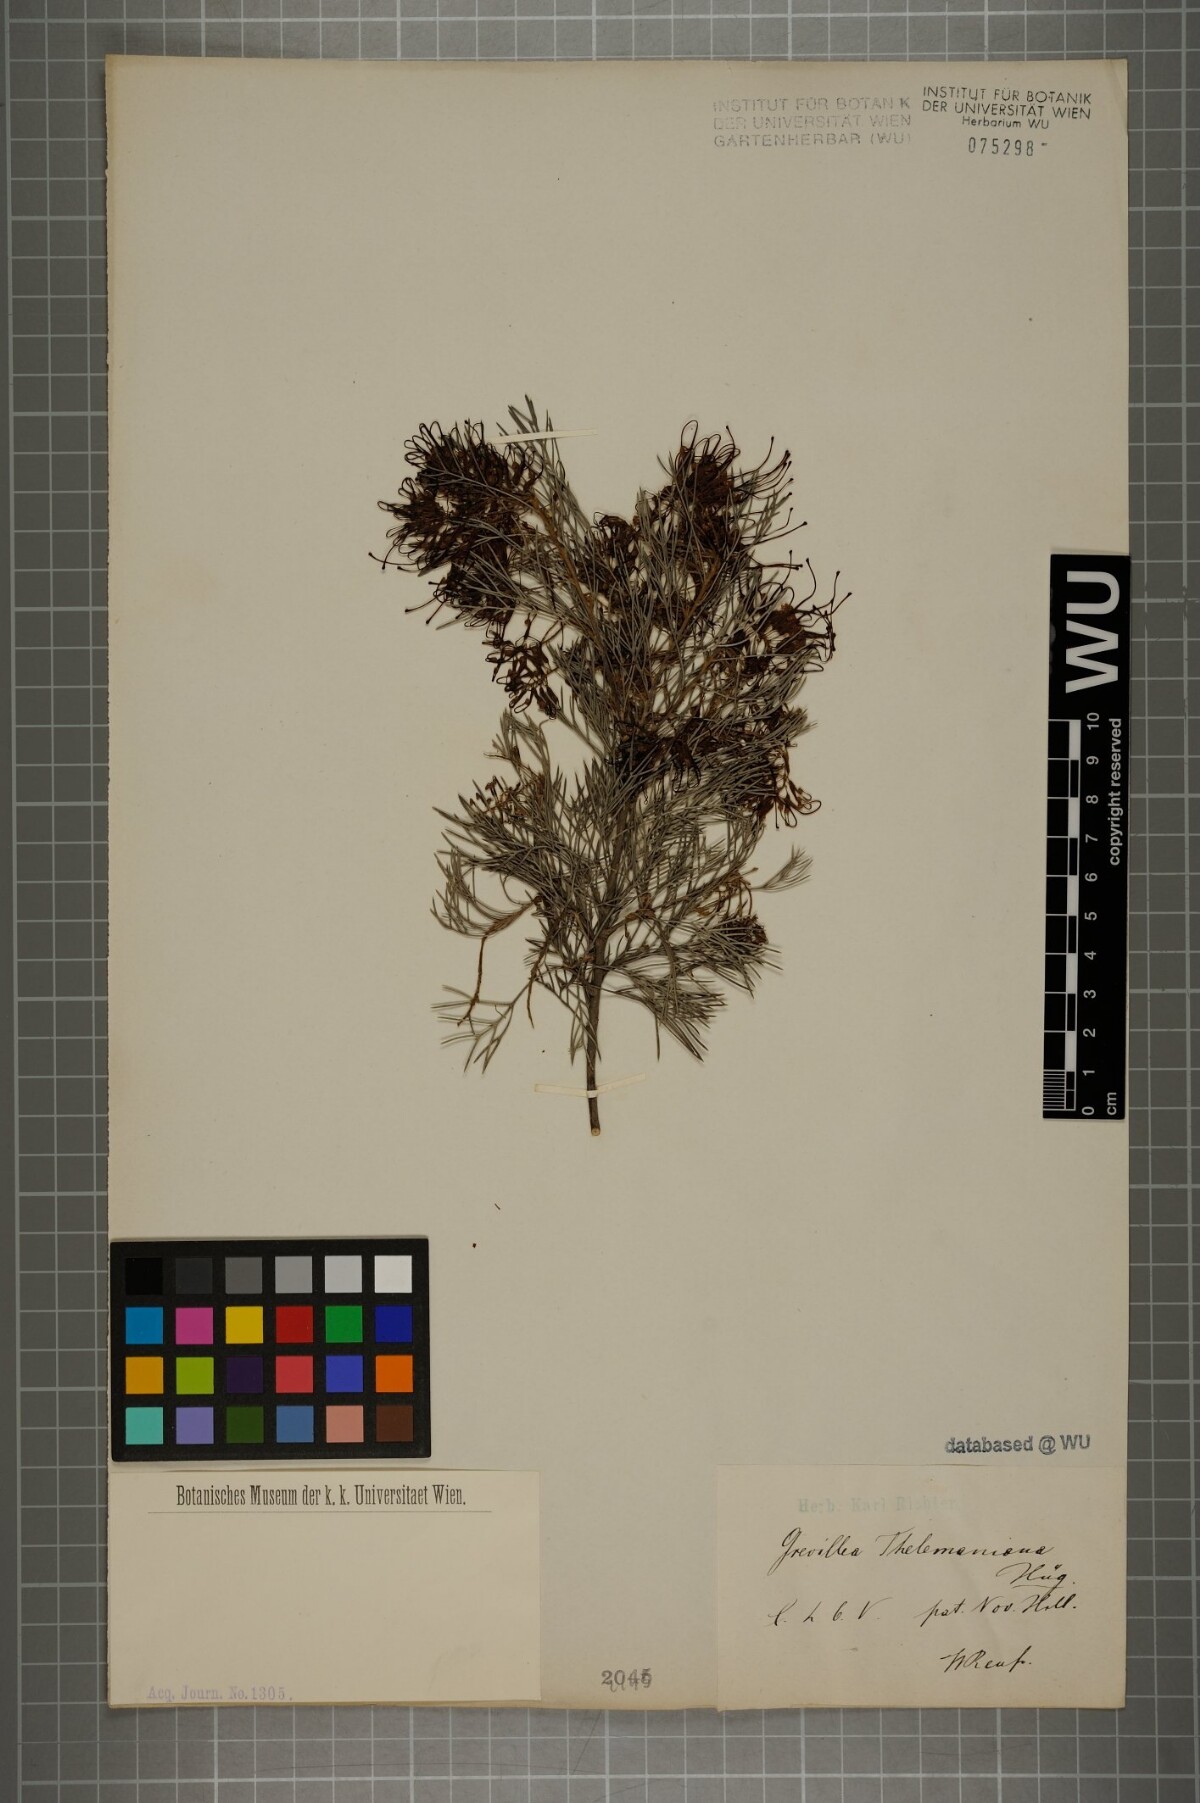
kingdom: Plantae
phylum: Tracheophyta
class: Magnoliopsida
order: Proteales
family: Proteaceae
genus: Grevillea
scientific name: Grevillea thelemanniana
